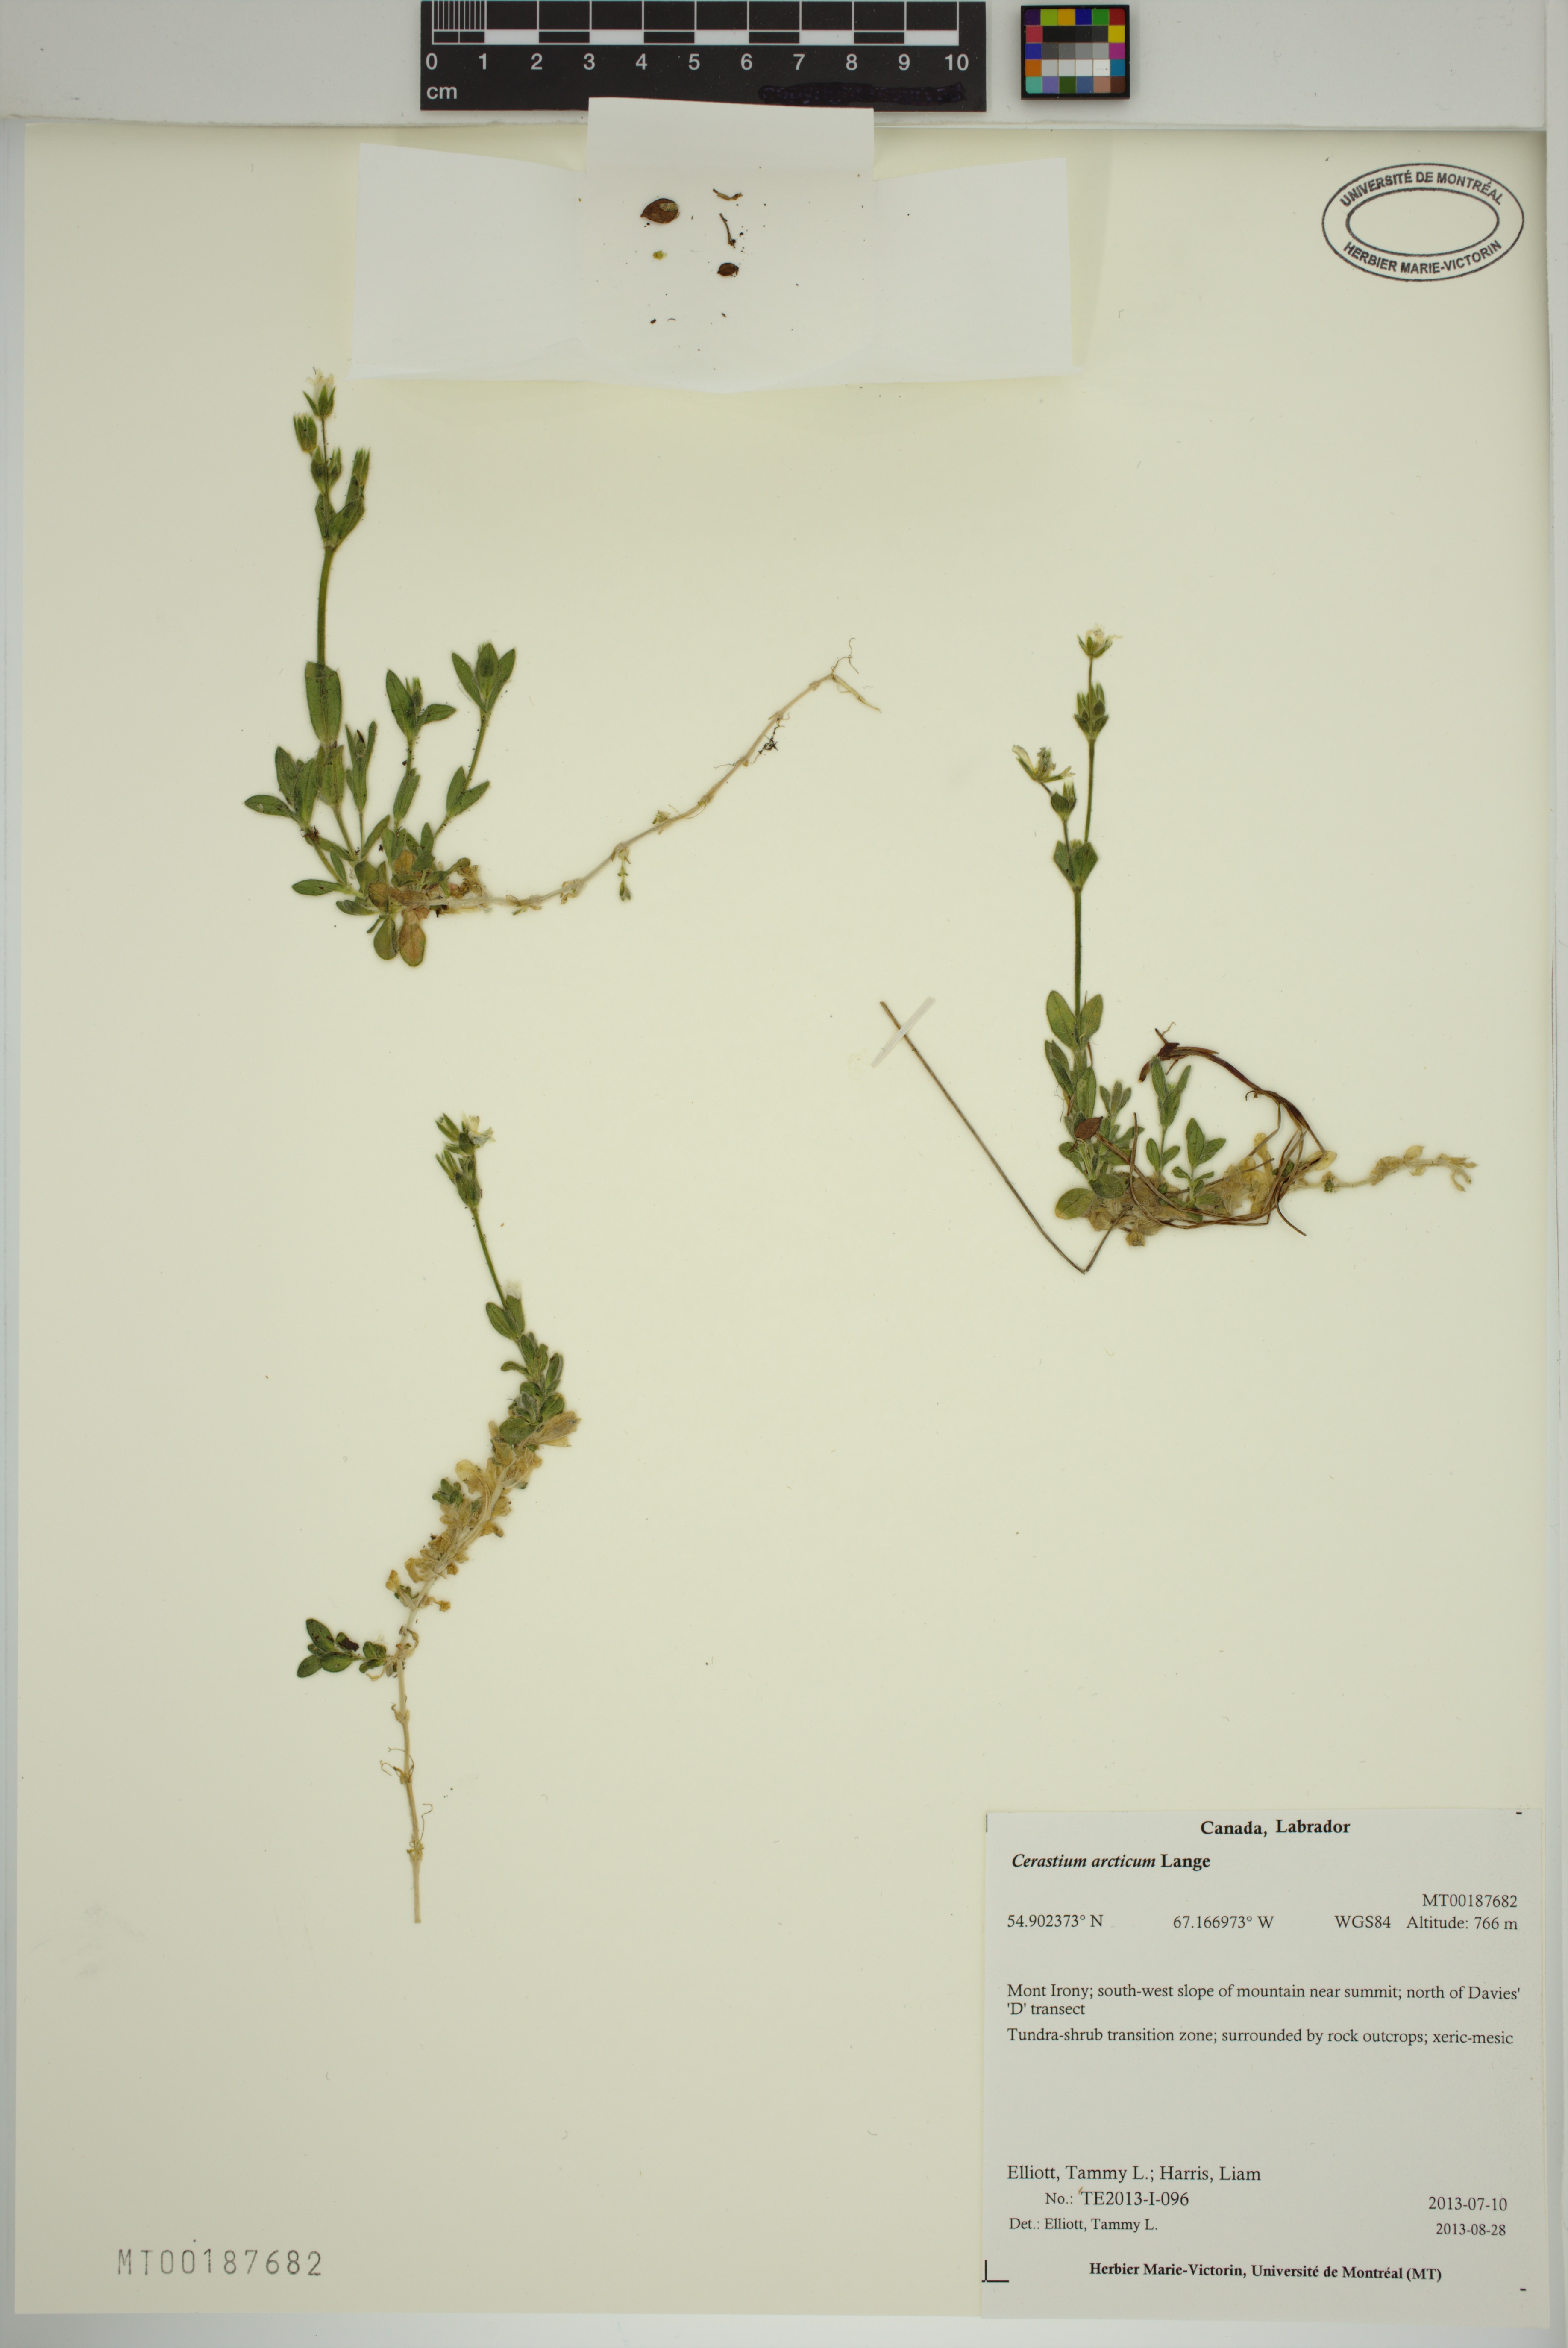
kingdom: Plantae
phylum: Tracheophyta
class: Magnoliopsida
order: Caryophyllales
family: Caryophyllaceae
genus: Cerastium
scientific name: Cerastium arcticum
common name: Arctic mouse-ear
